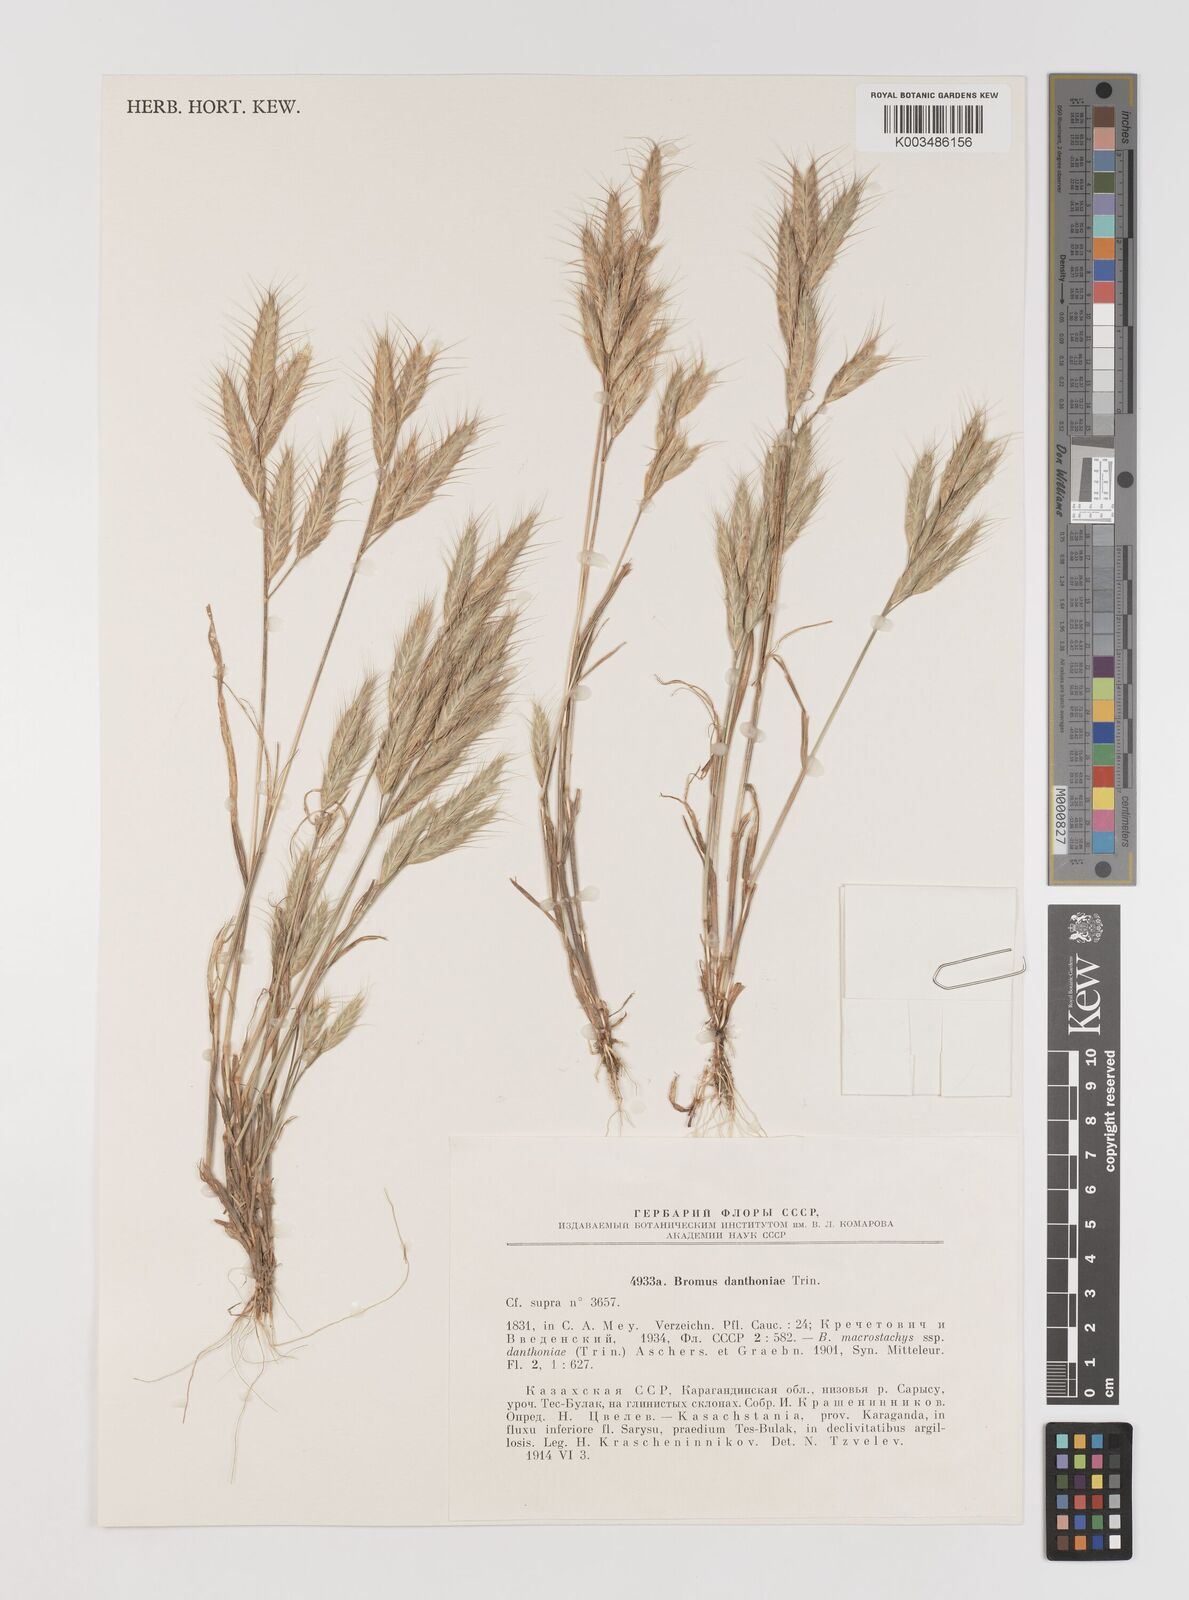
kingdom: Plantae
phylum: Tracheophyta
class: Liliopsida
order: Poales
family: Poaceae
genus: Bromus
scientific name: Bromus danthoniae
